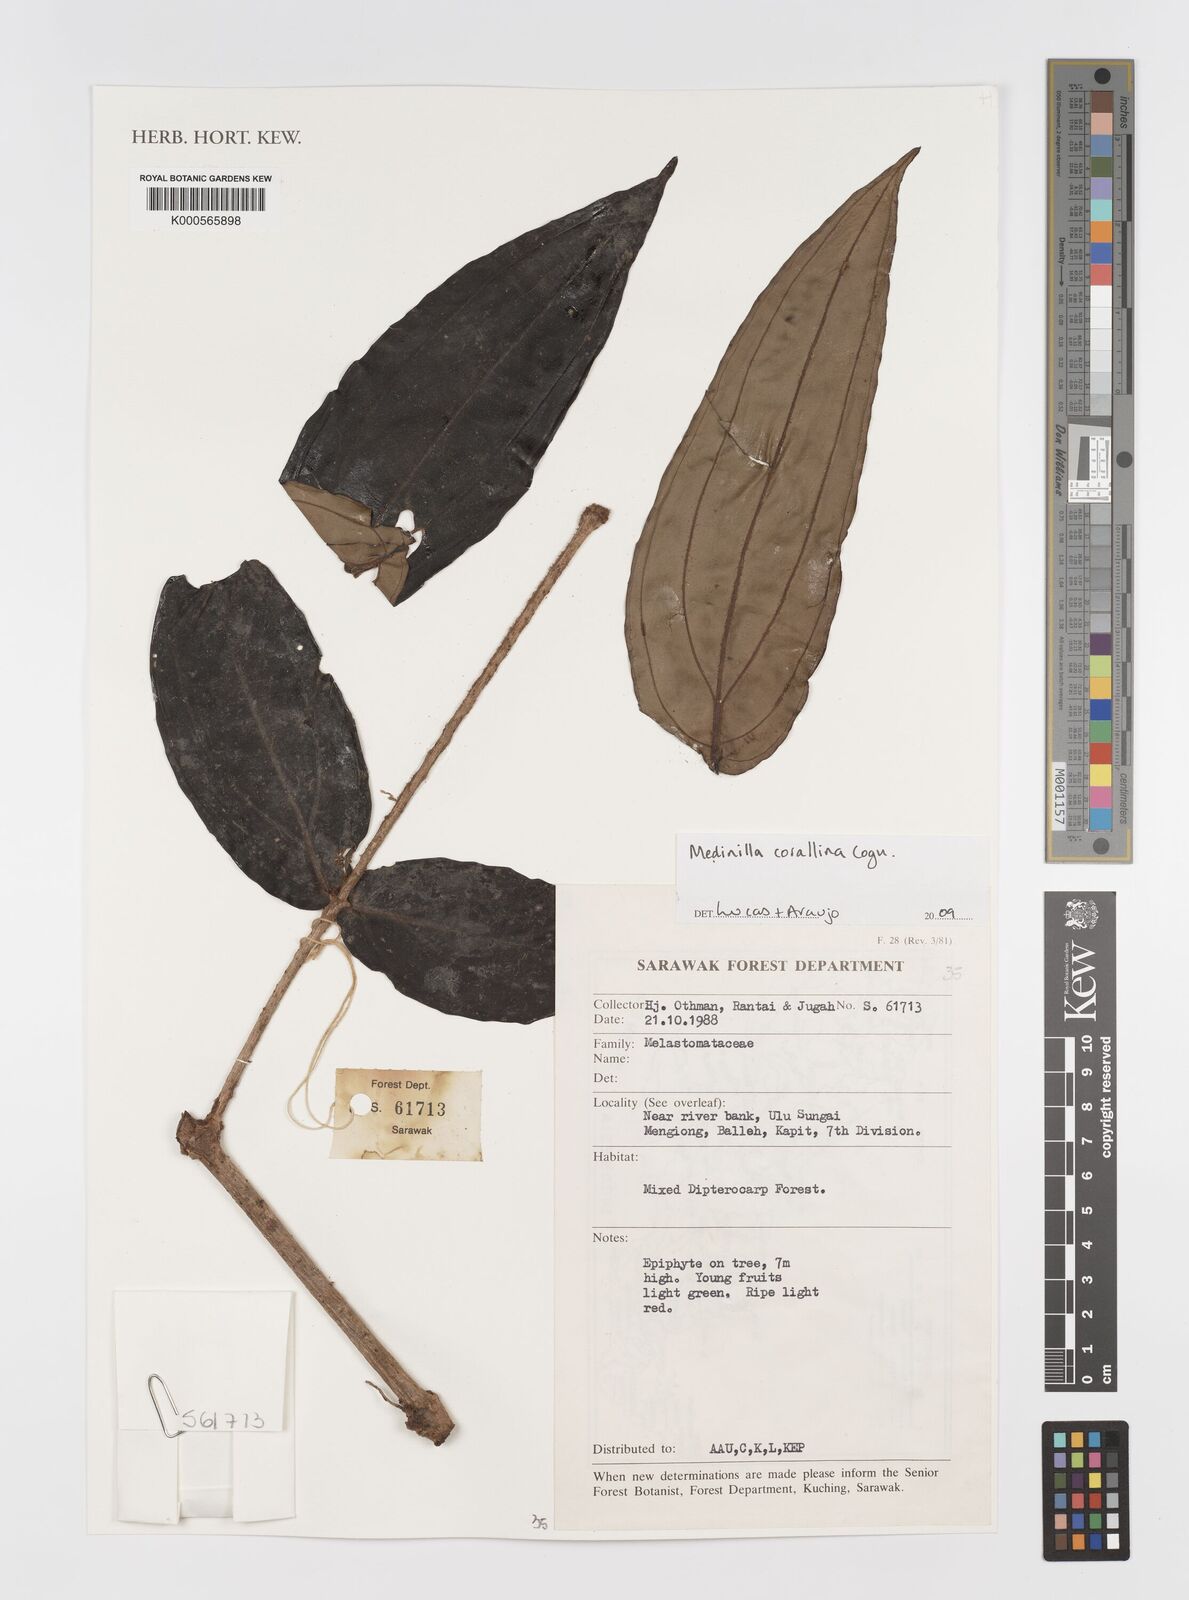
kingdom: Plantae
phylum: Tracheophyta
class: Magnoliopsida
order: Myrtales
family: Melastomataceae
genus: Medinilla
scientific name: Medinilla
